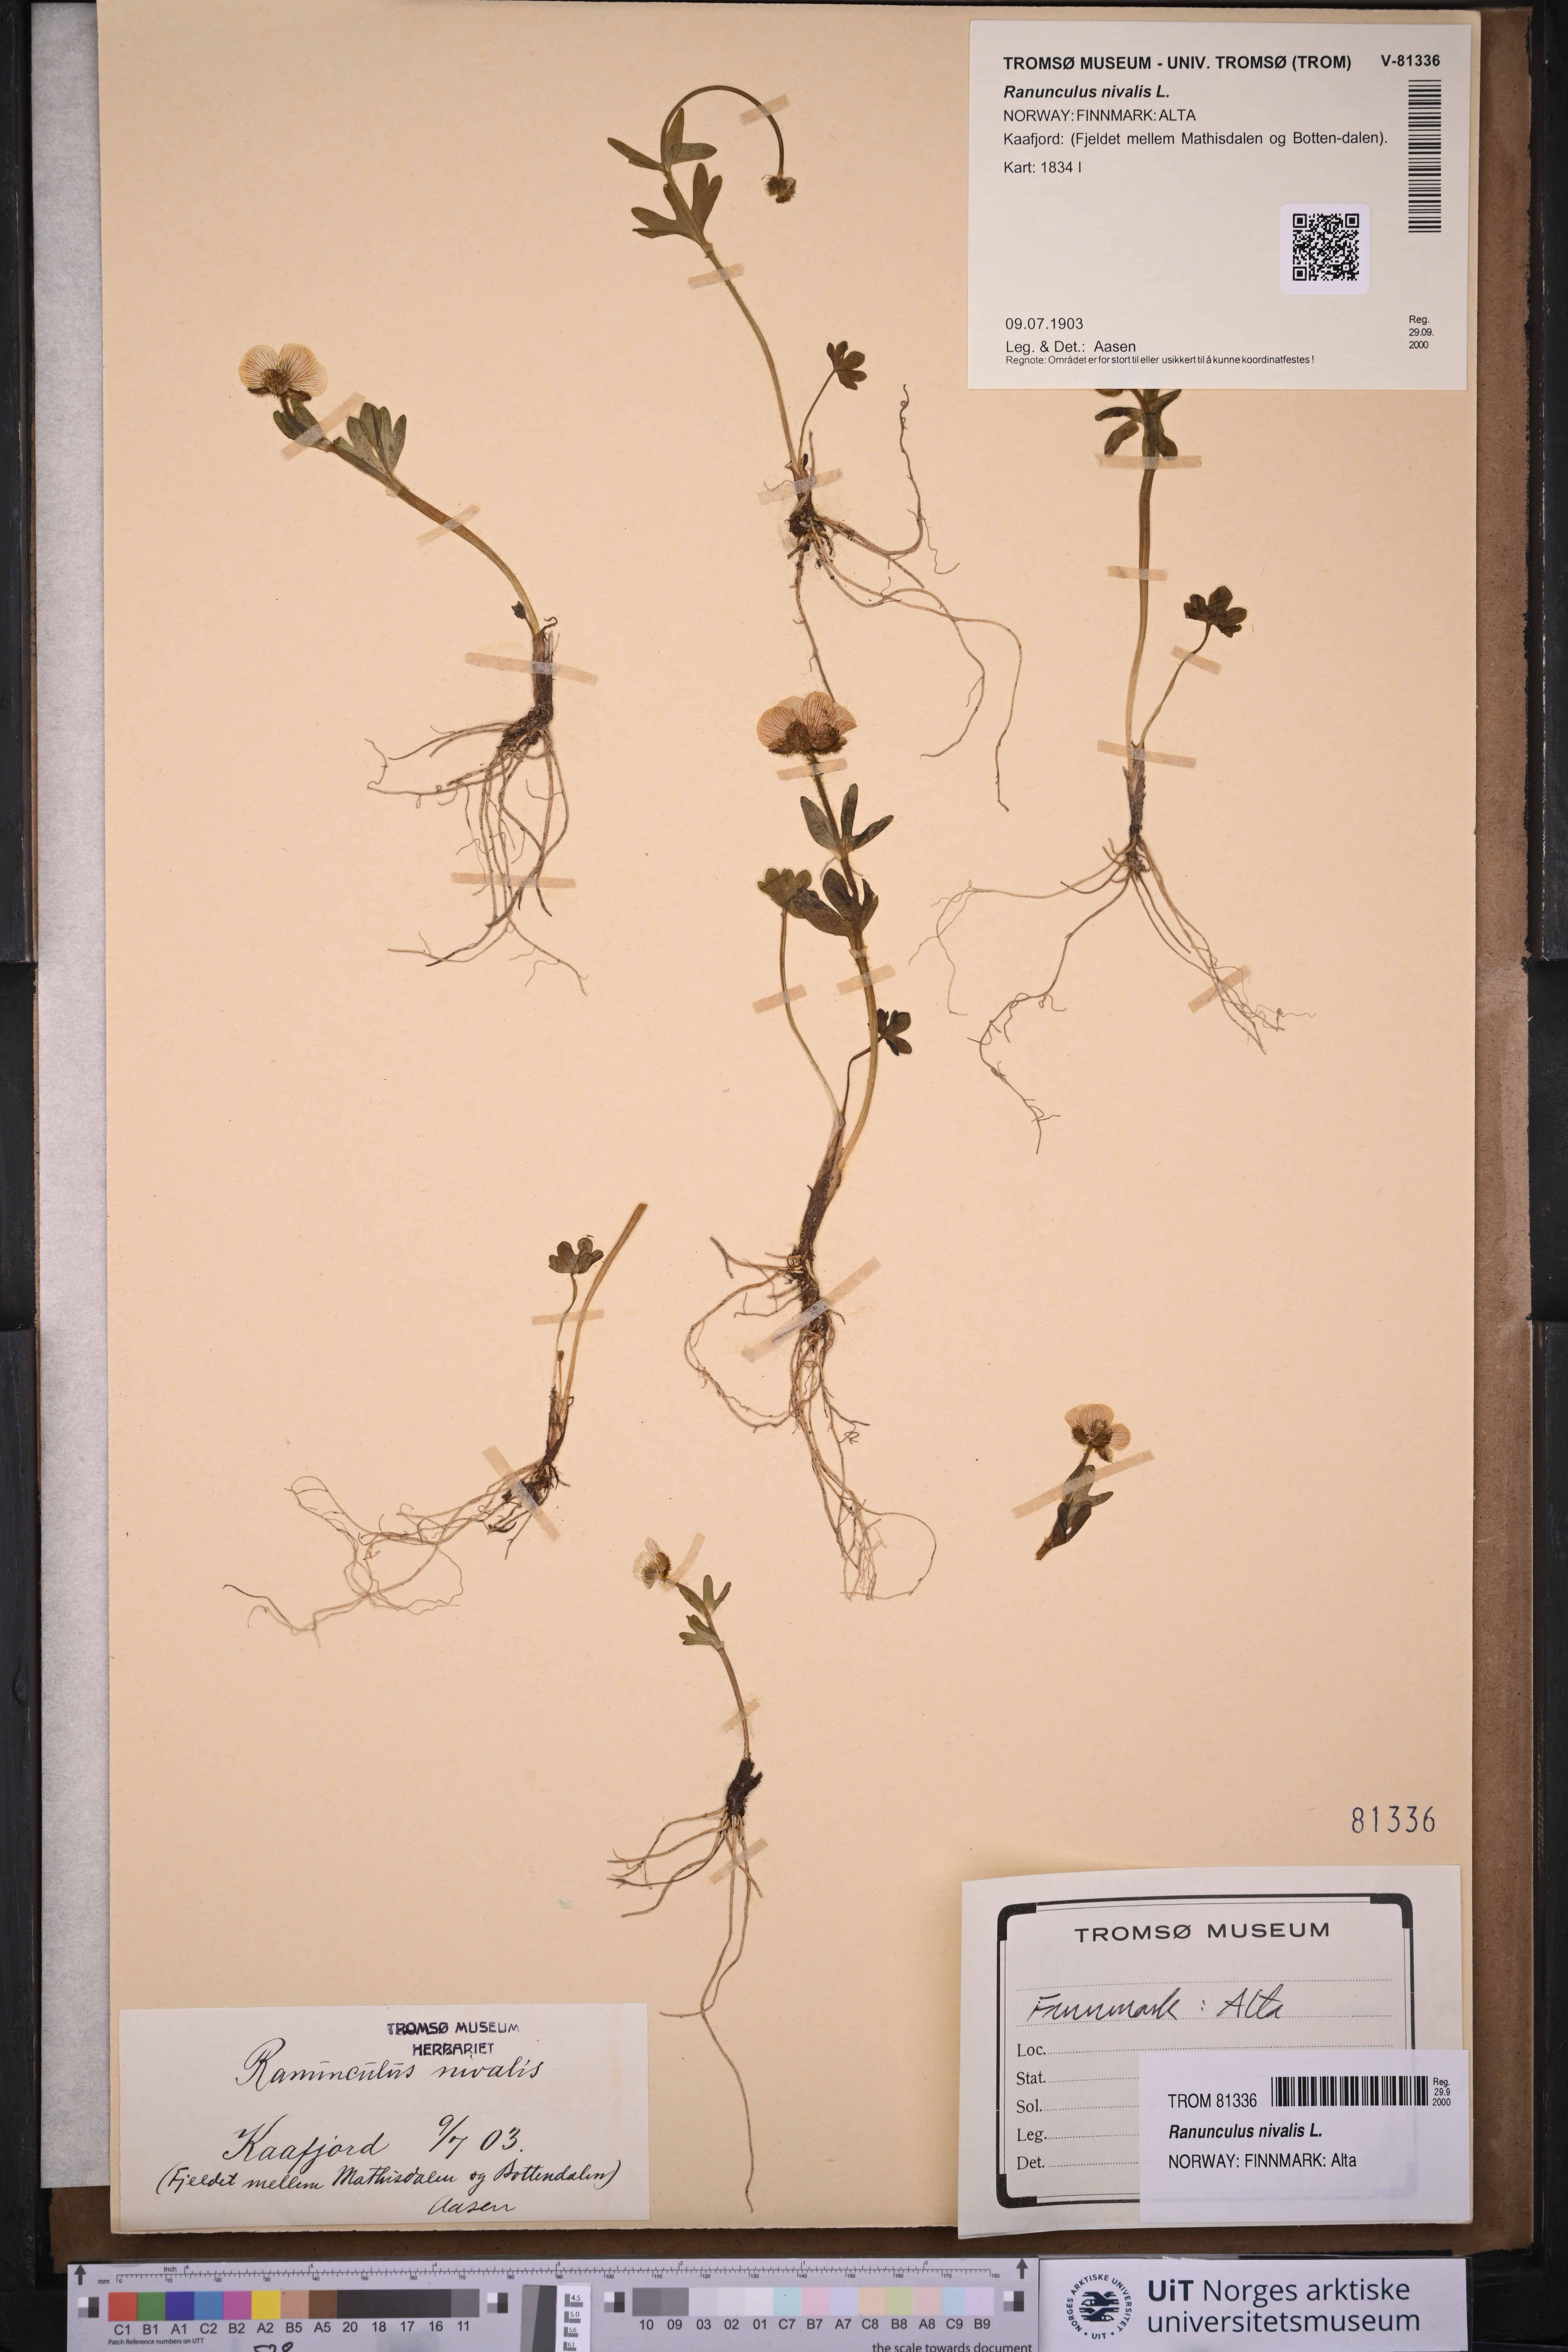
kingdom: Plantae
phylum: Tracheophyta
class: Magnoliopsida
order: Ranunculales
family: Ranunculaceae
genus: Ranunculus
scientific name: Ranunculus nivalis
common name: Snow buttercup
